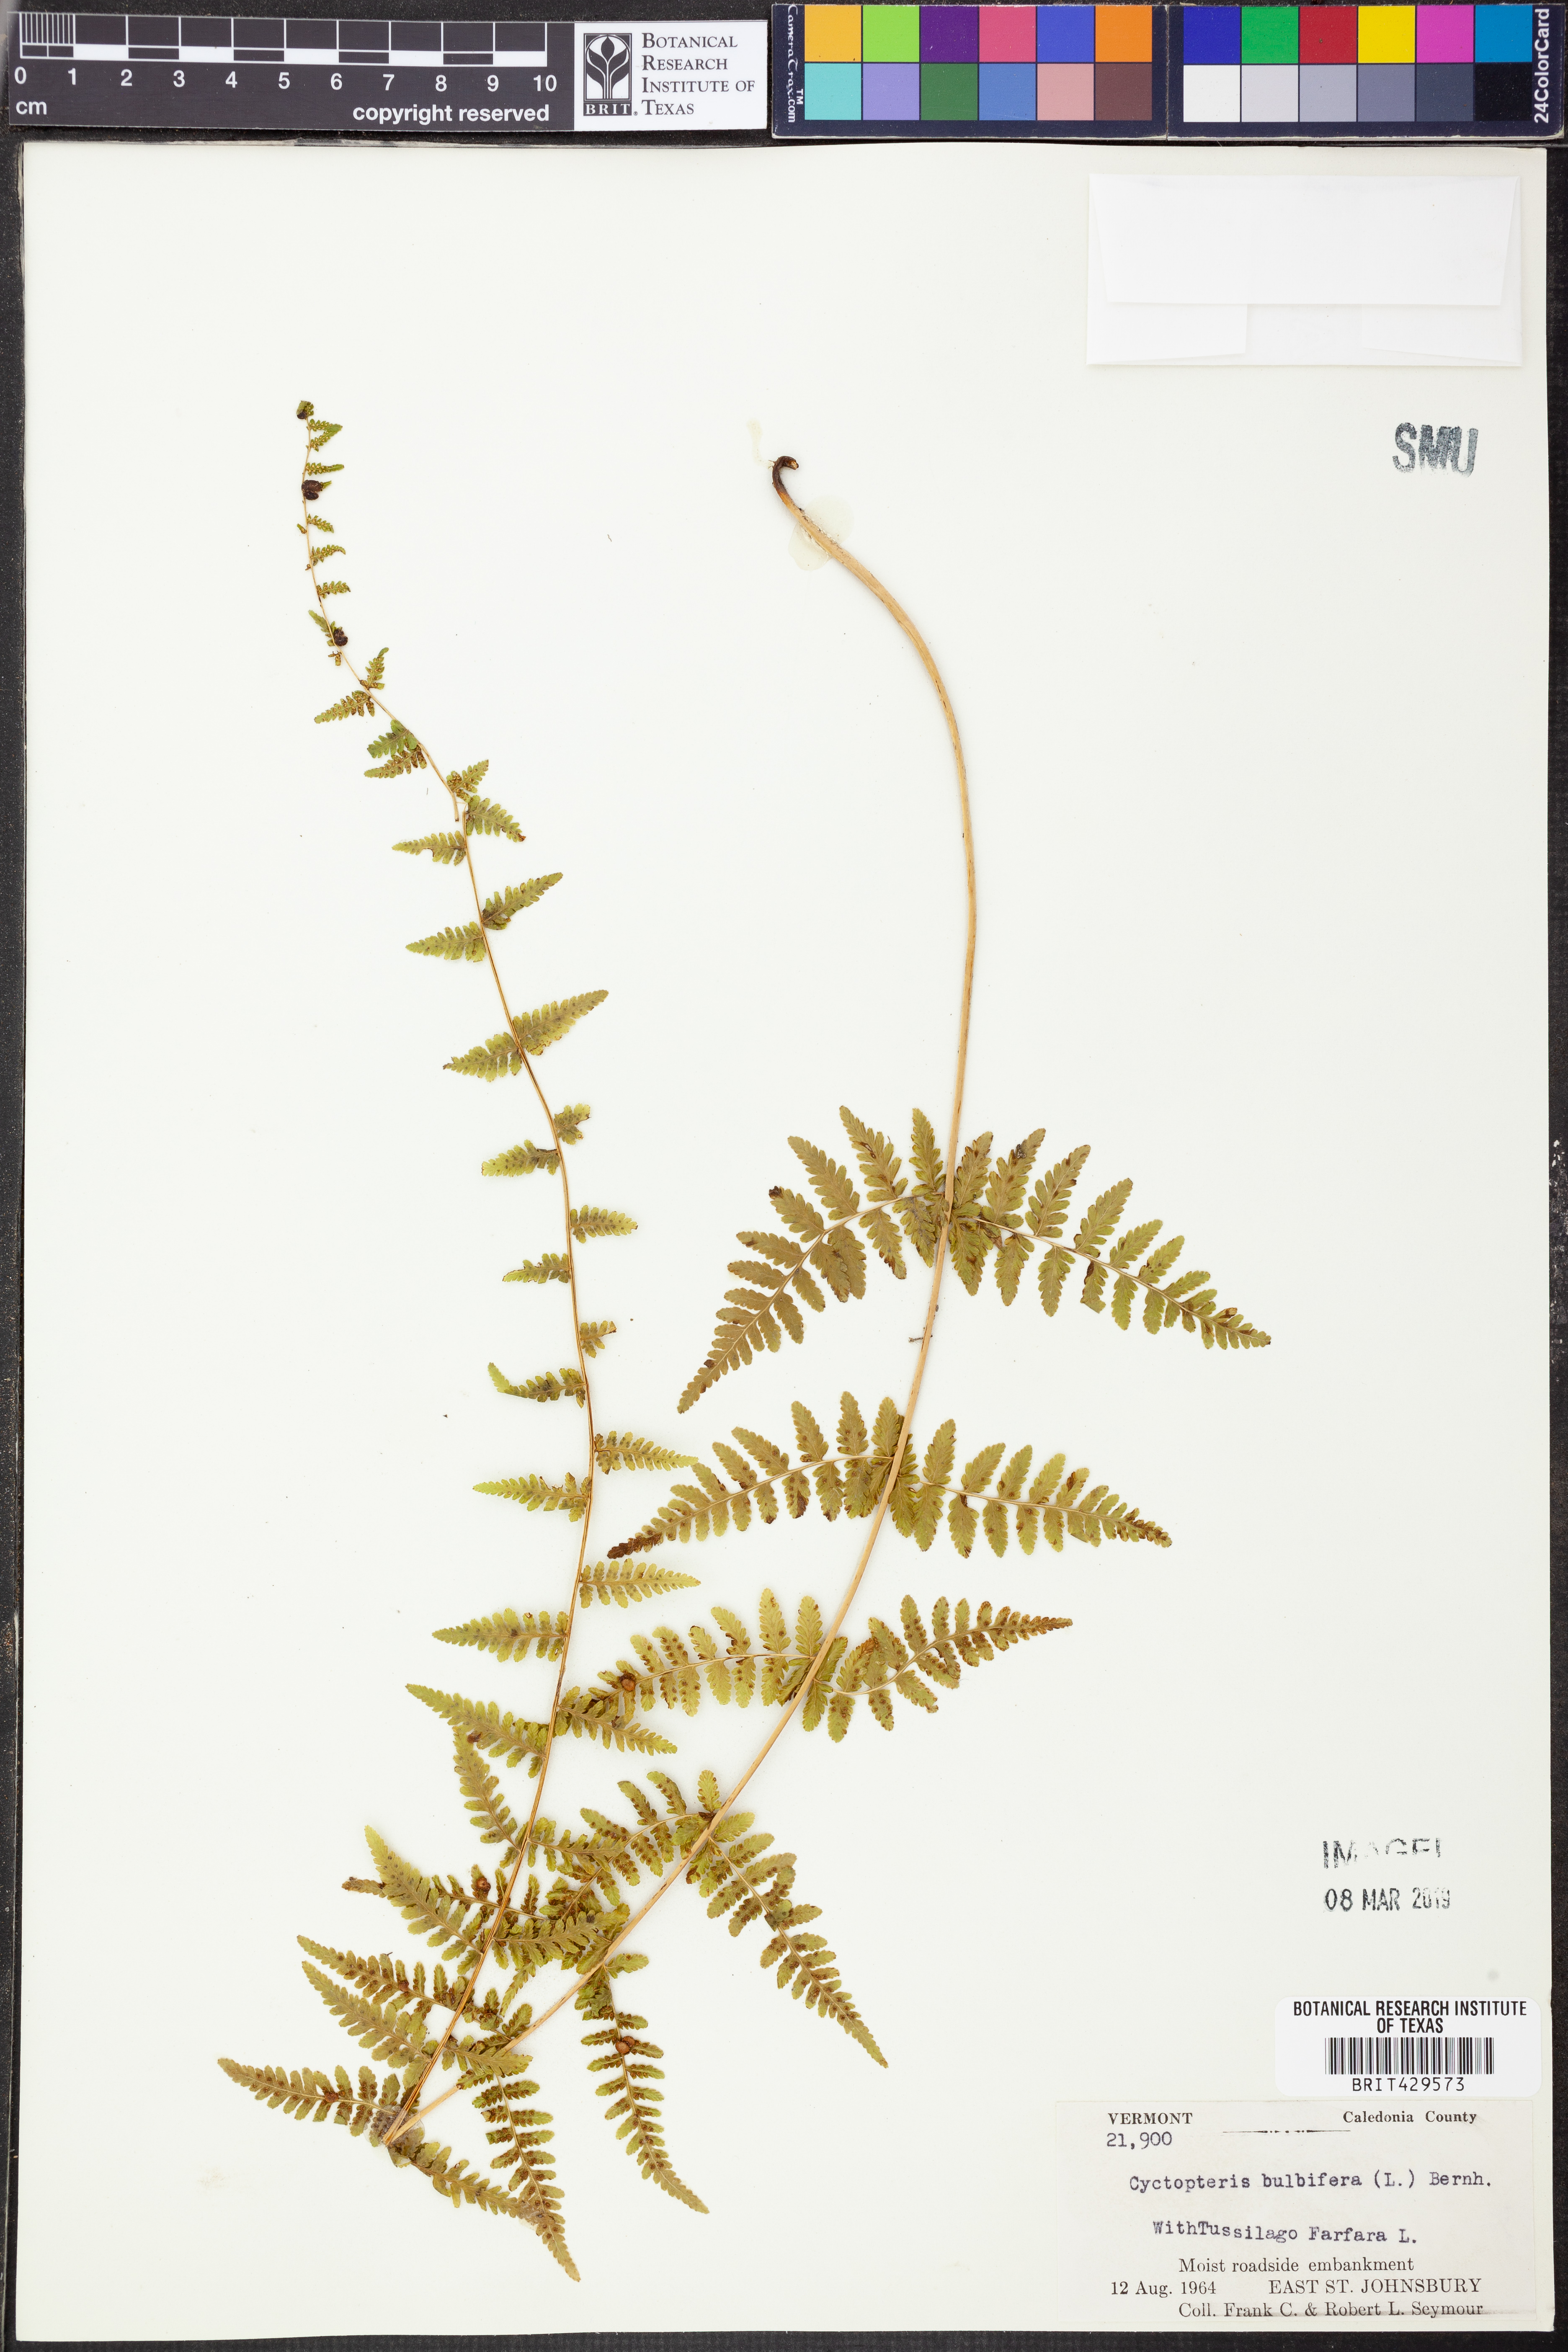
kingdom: Plantae
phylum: Tracheophyta
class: Polypodiopsida
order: Polypodiales
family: Cystopteridaceae
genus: Cystopteris
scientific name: Cystopteris bulbifera
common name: Bulblet bladder fern
